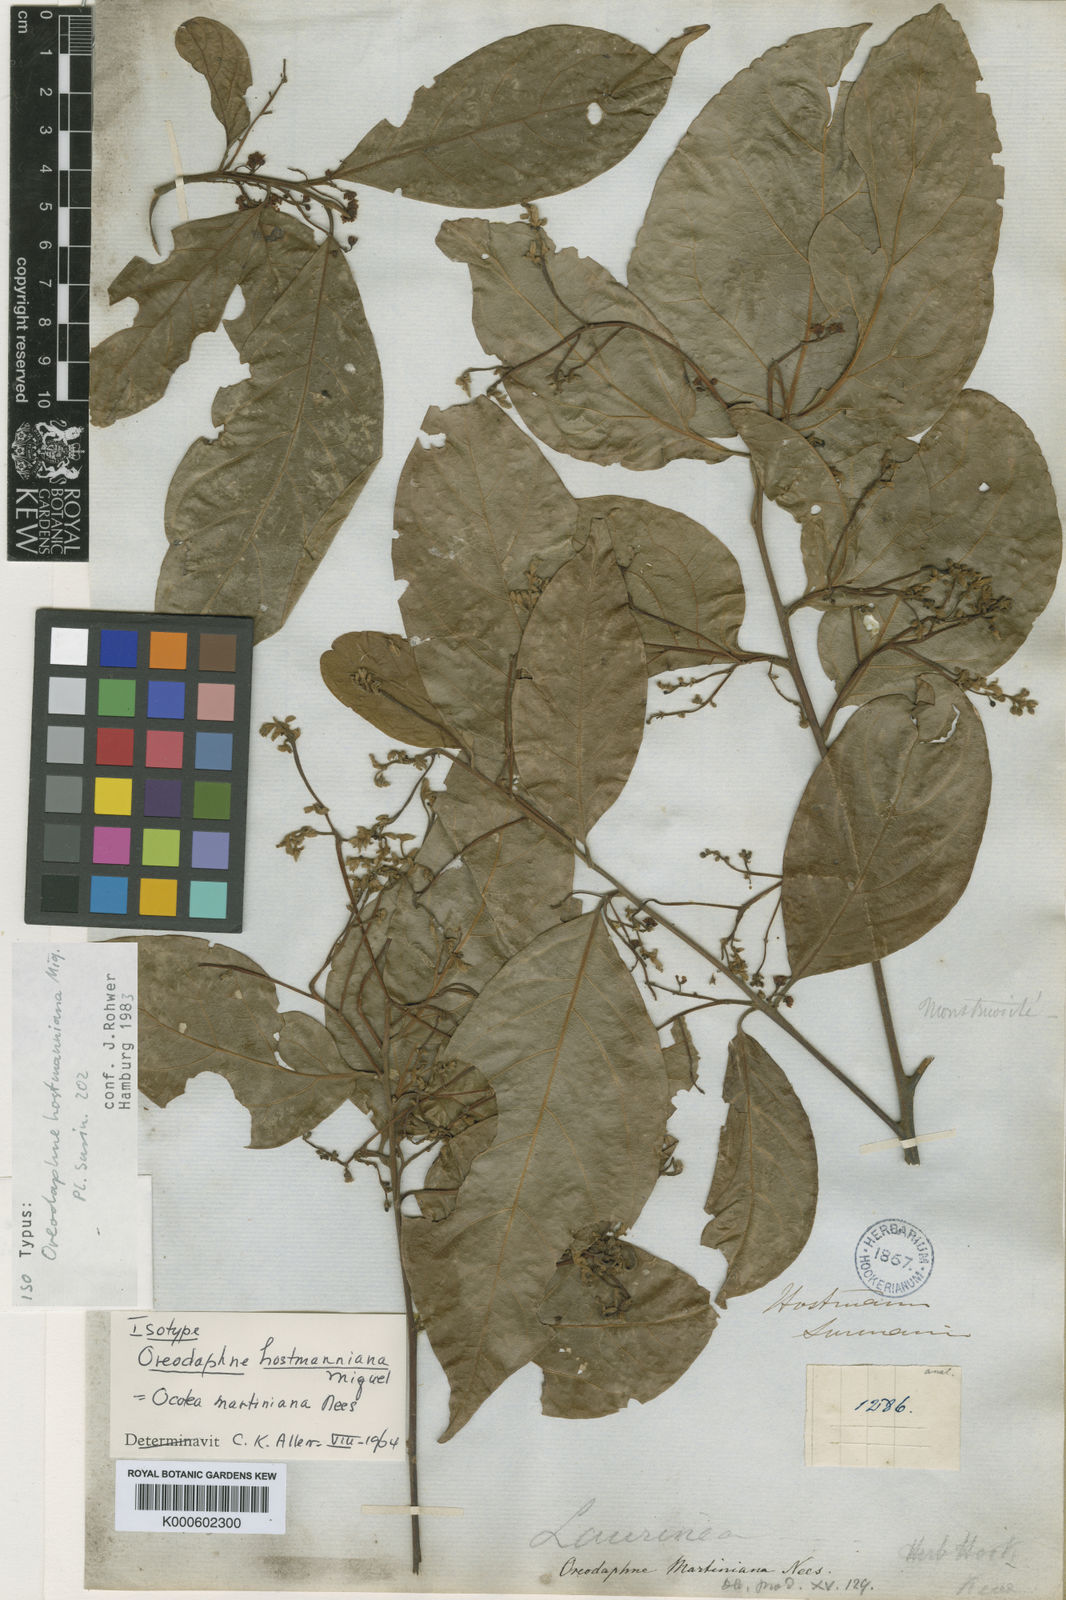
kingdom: Plantae
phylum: Tracheophyta
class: Magnoliopsida
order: Laurales
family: Lauraceae
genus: Ocotea
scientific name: Ocotea puberula
